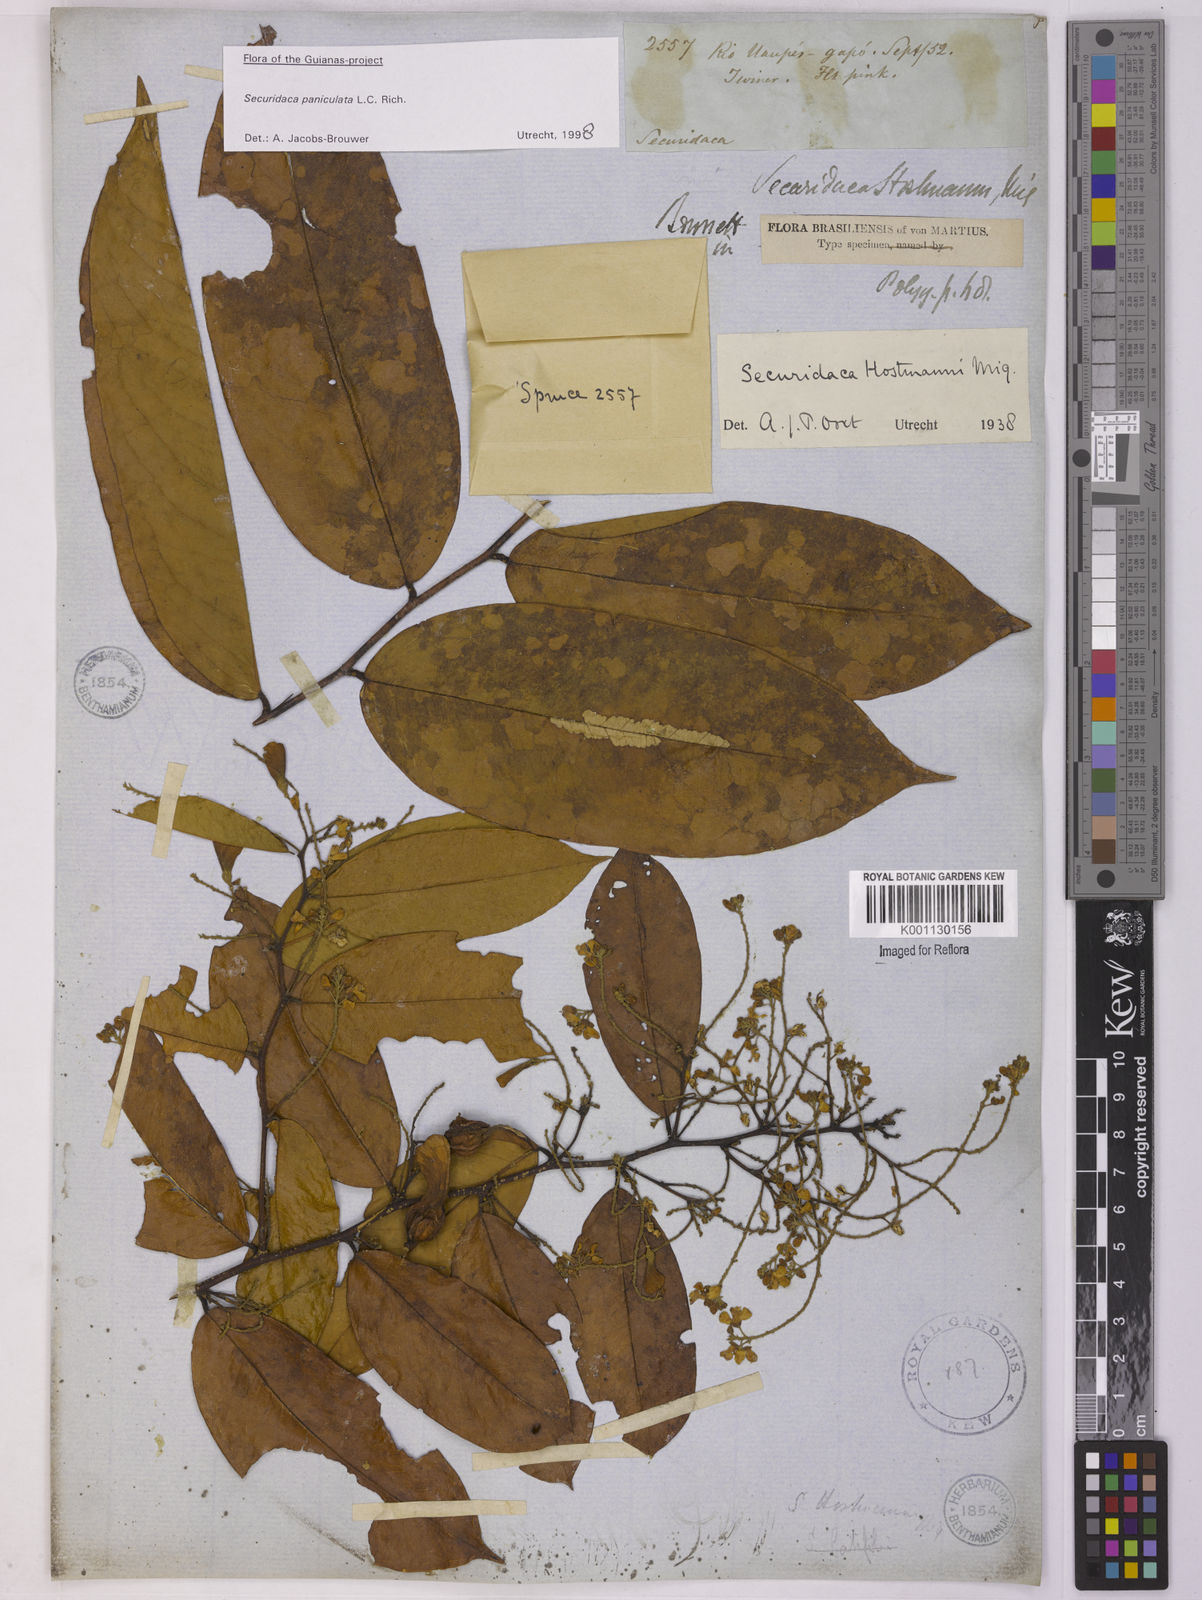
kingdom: Plantae
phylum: Tracheophyta
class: Magnoliopsida
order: Fabales
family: Polygalaceae
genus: Securidaca
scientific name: Securidaca paniculata
